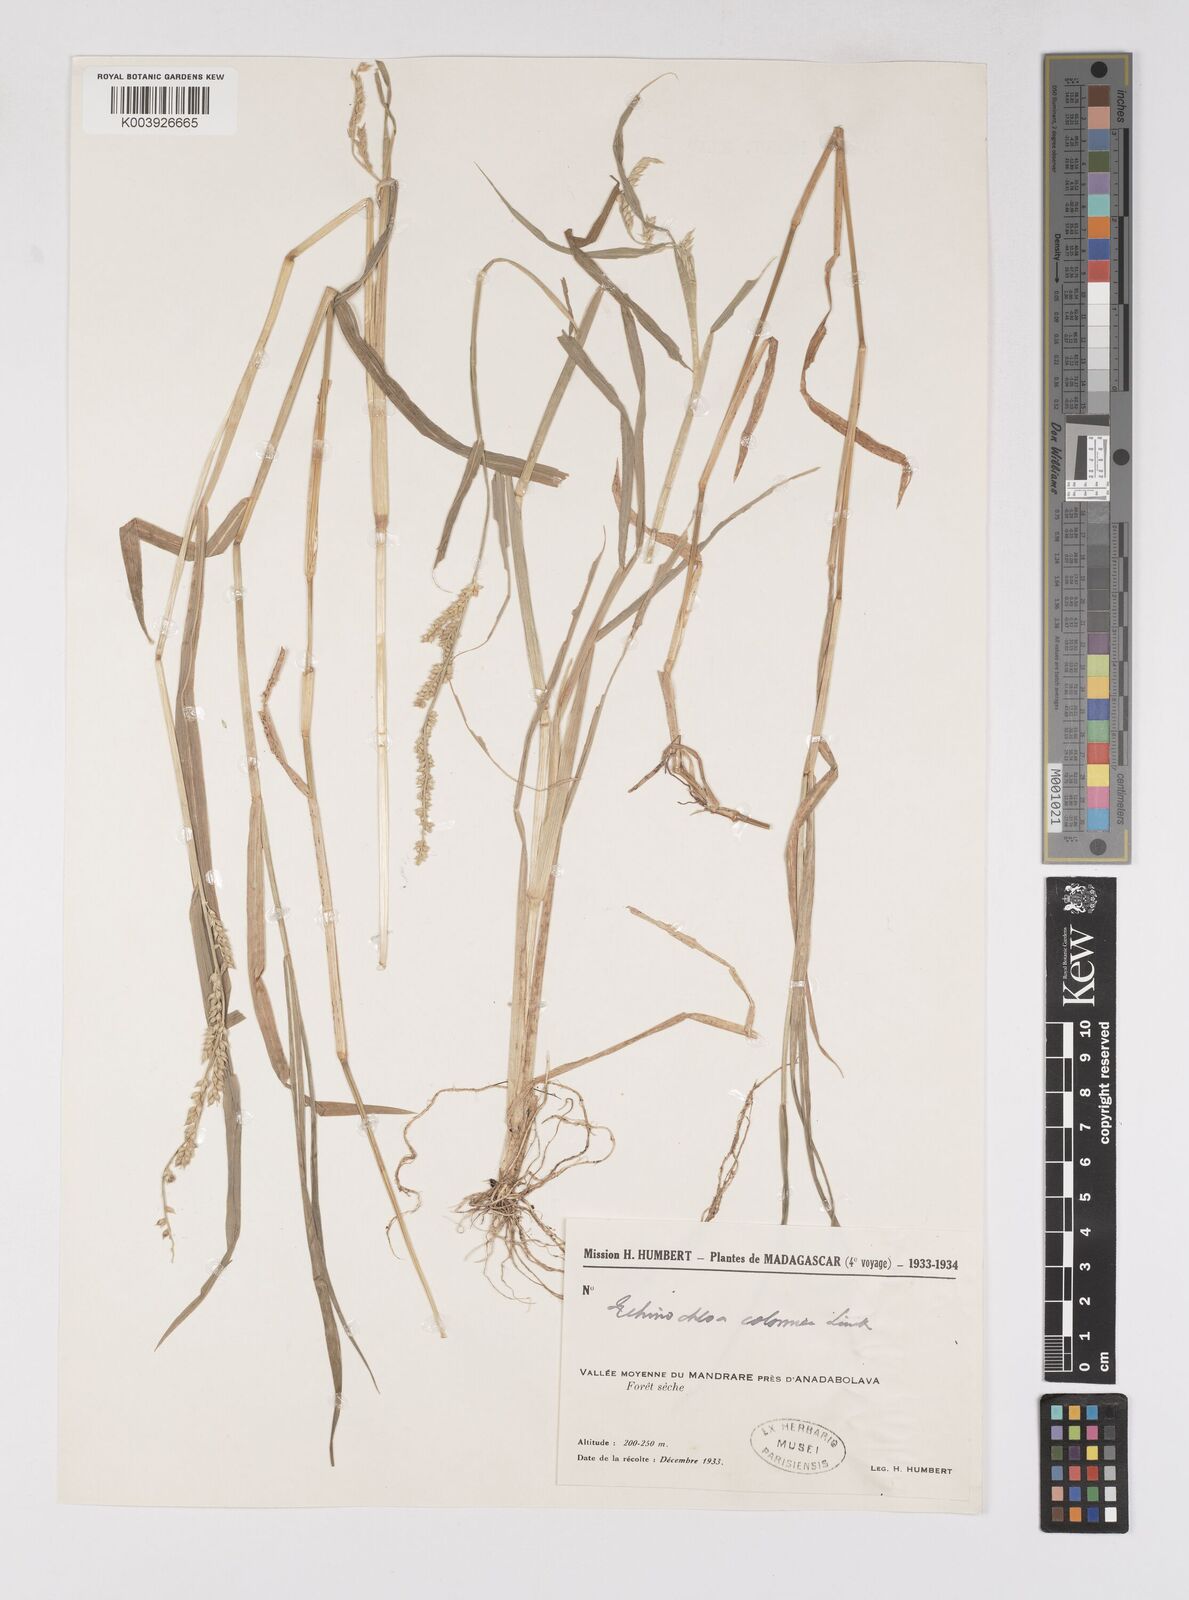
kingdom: Plantae
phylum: Tracheophyta
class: Liliopsida
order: Poales
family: Poaceae
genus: Echinochloa
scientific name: Echinochloa colonum
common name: Jungle rice
